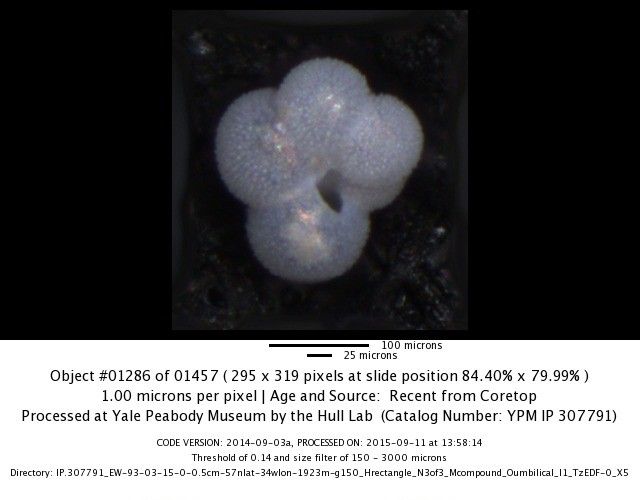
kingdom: Chromista
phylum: Foraminifera
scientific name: Foraminifera
